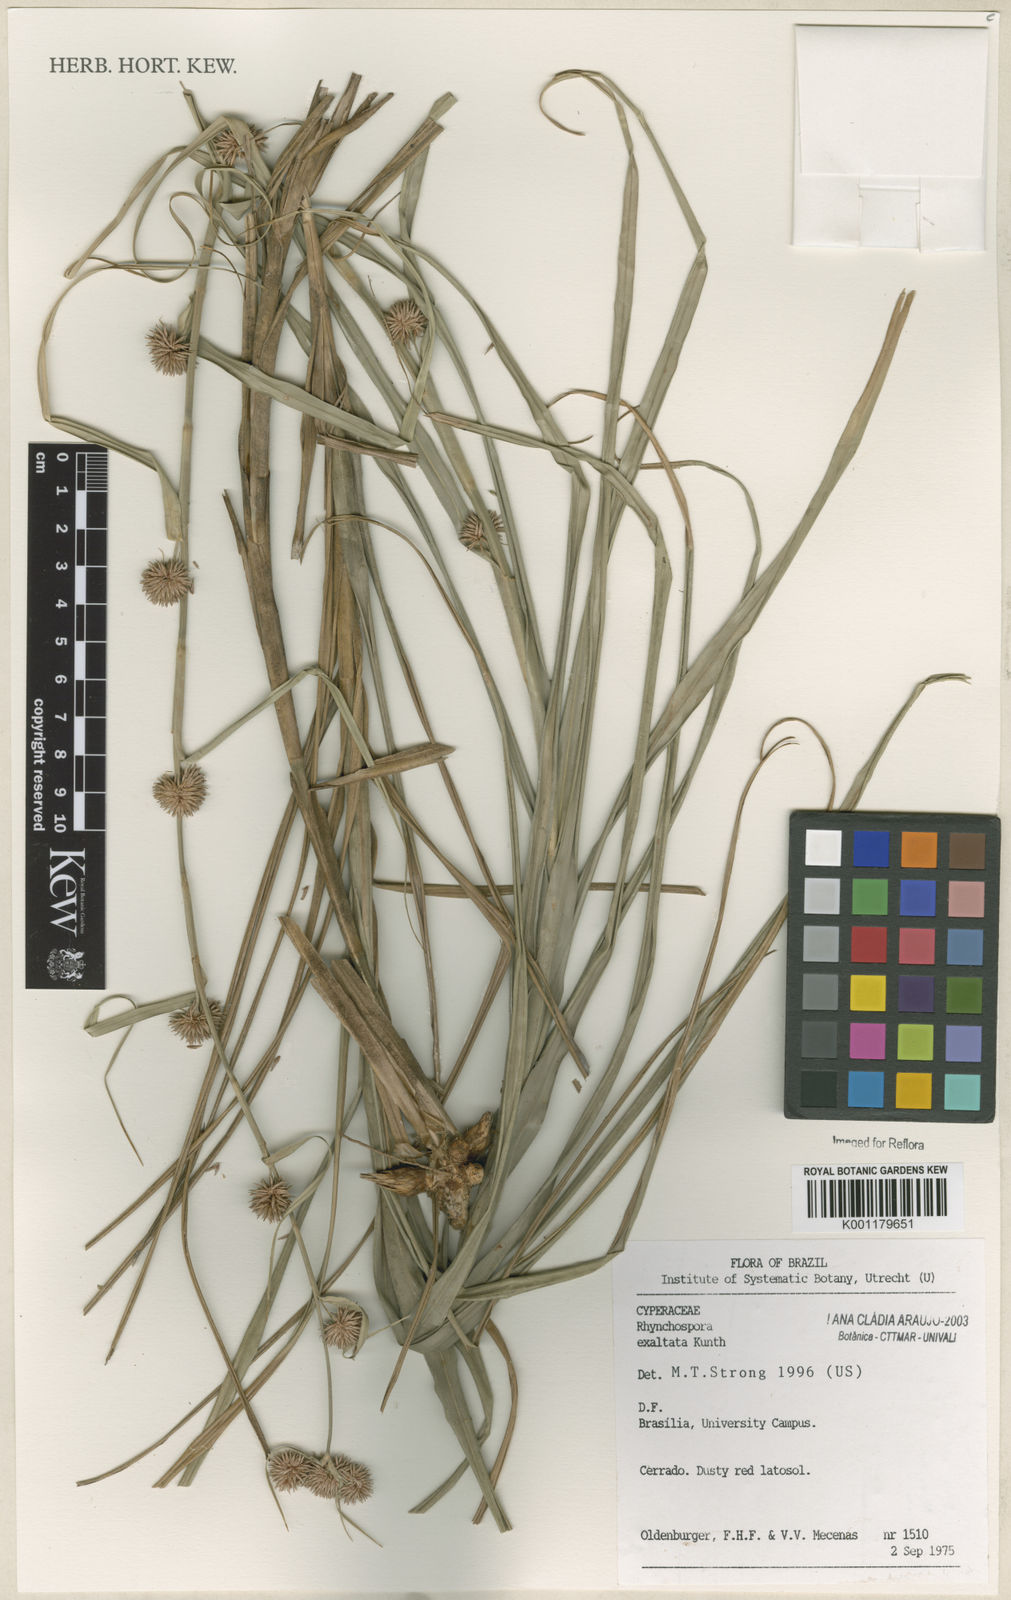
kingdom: Plantae
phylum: Tracheophyta
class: Liliopsida
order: Poales
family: Cyperaceae
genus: Rhynchospora
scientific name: Rhynchospora exaltata
